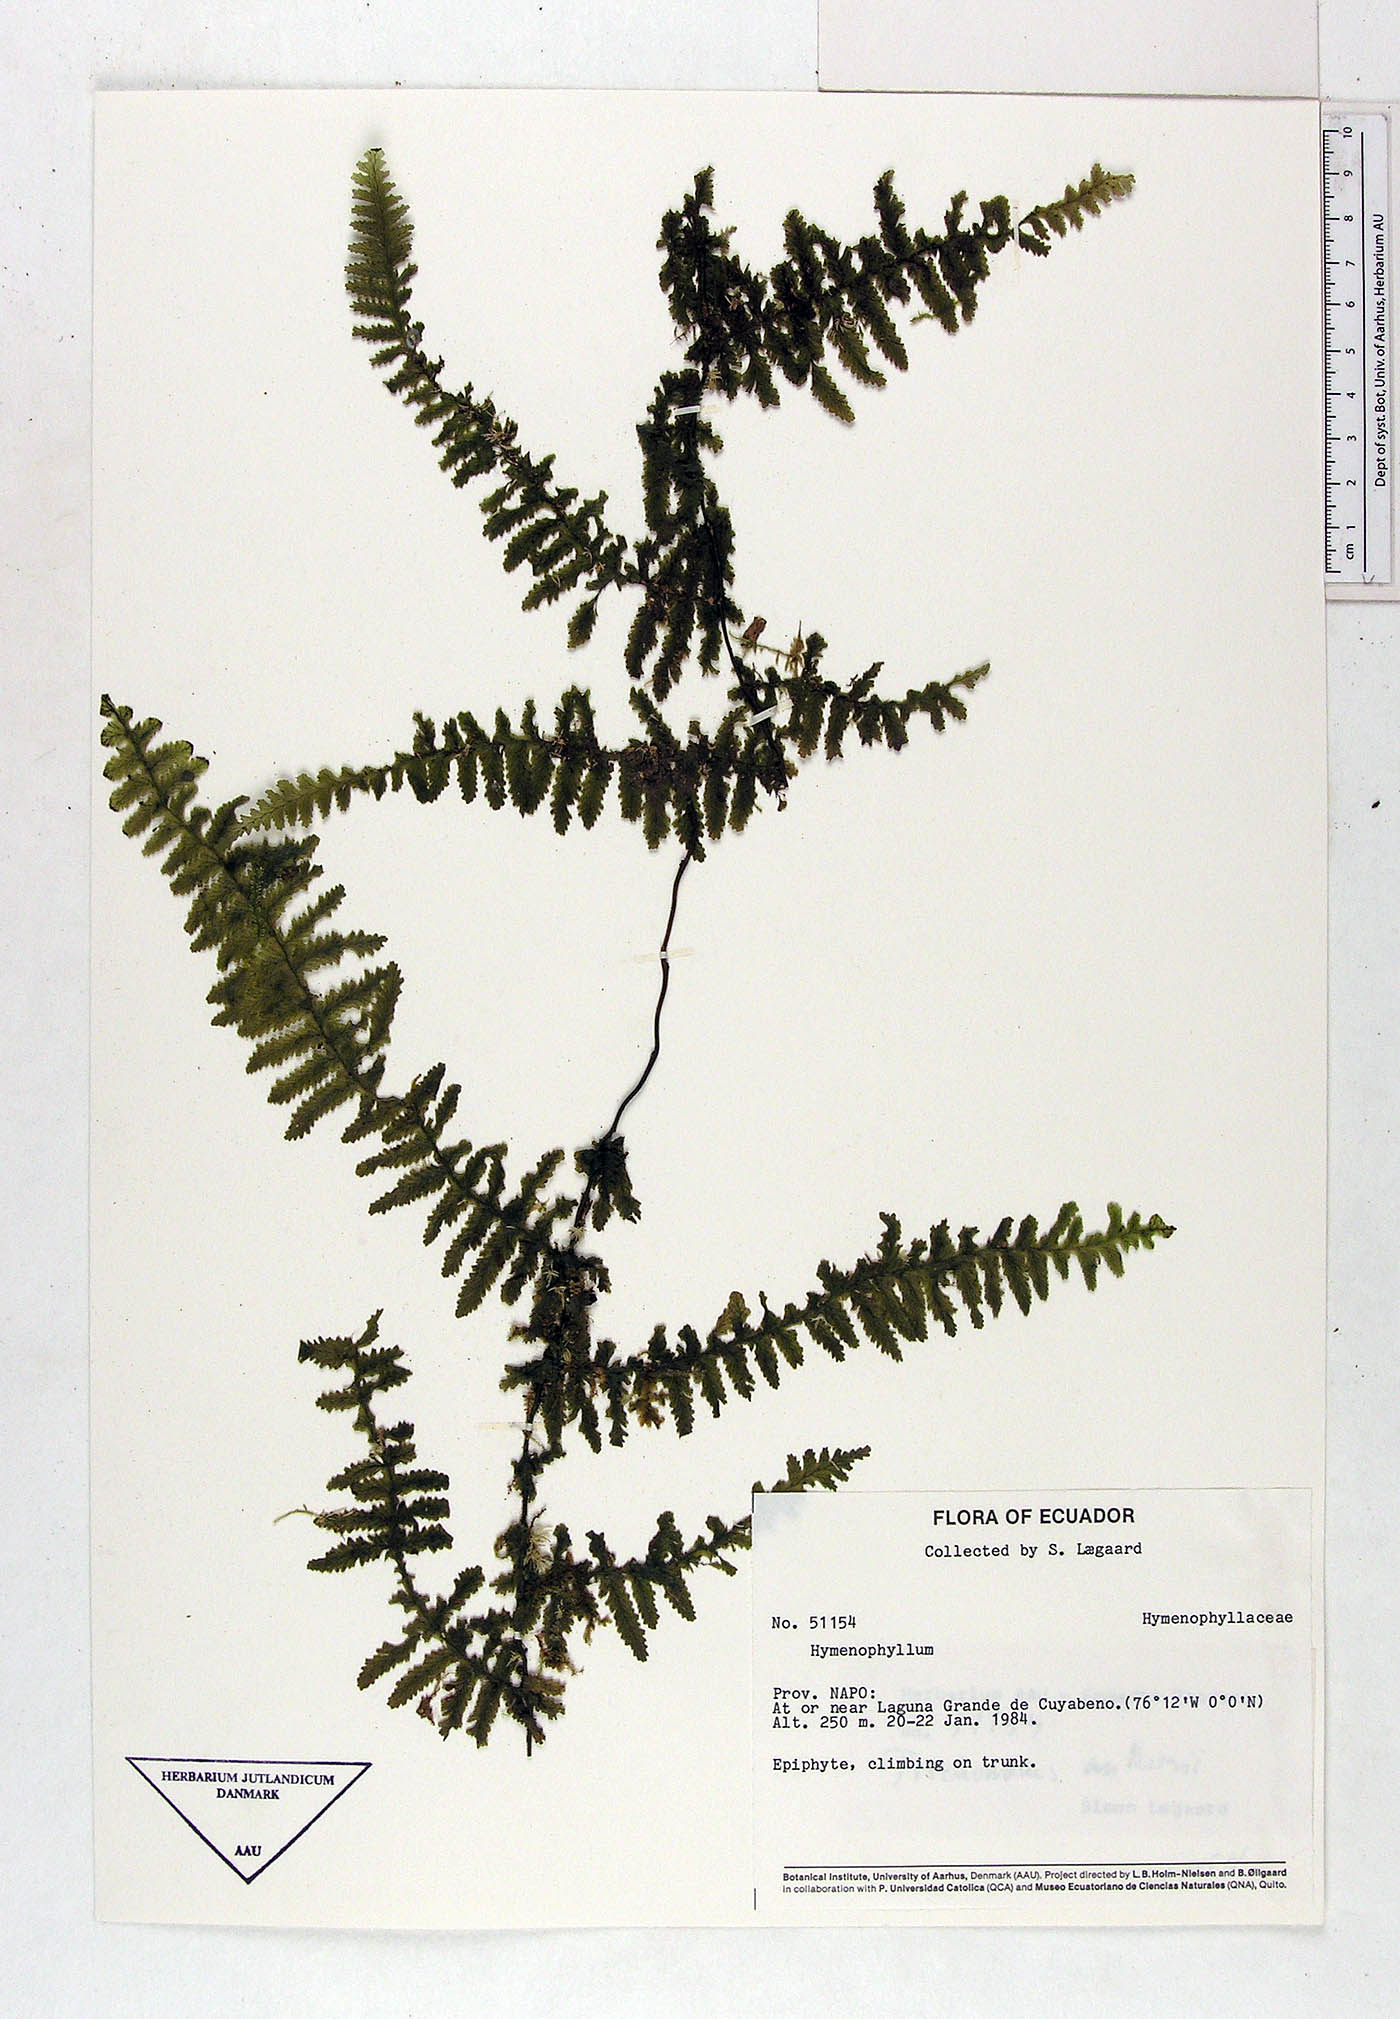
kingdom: Plantae
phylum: Tracheophyta
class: Polypodiopsida
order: Hymenophyllales
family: Hymenophyllaceae
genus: Hymenophyllum
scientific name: Hymenophyllum
